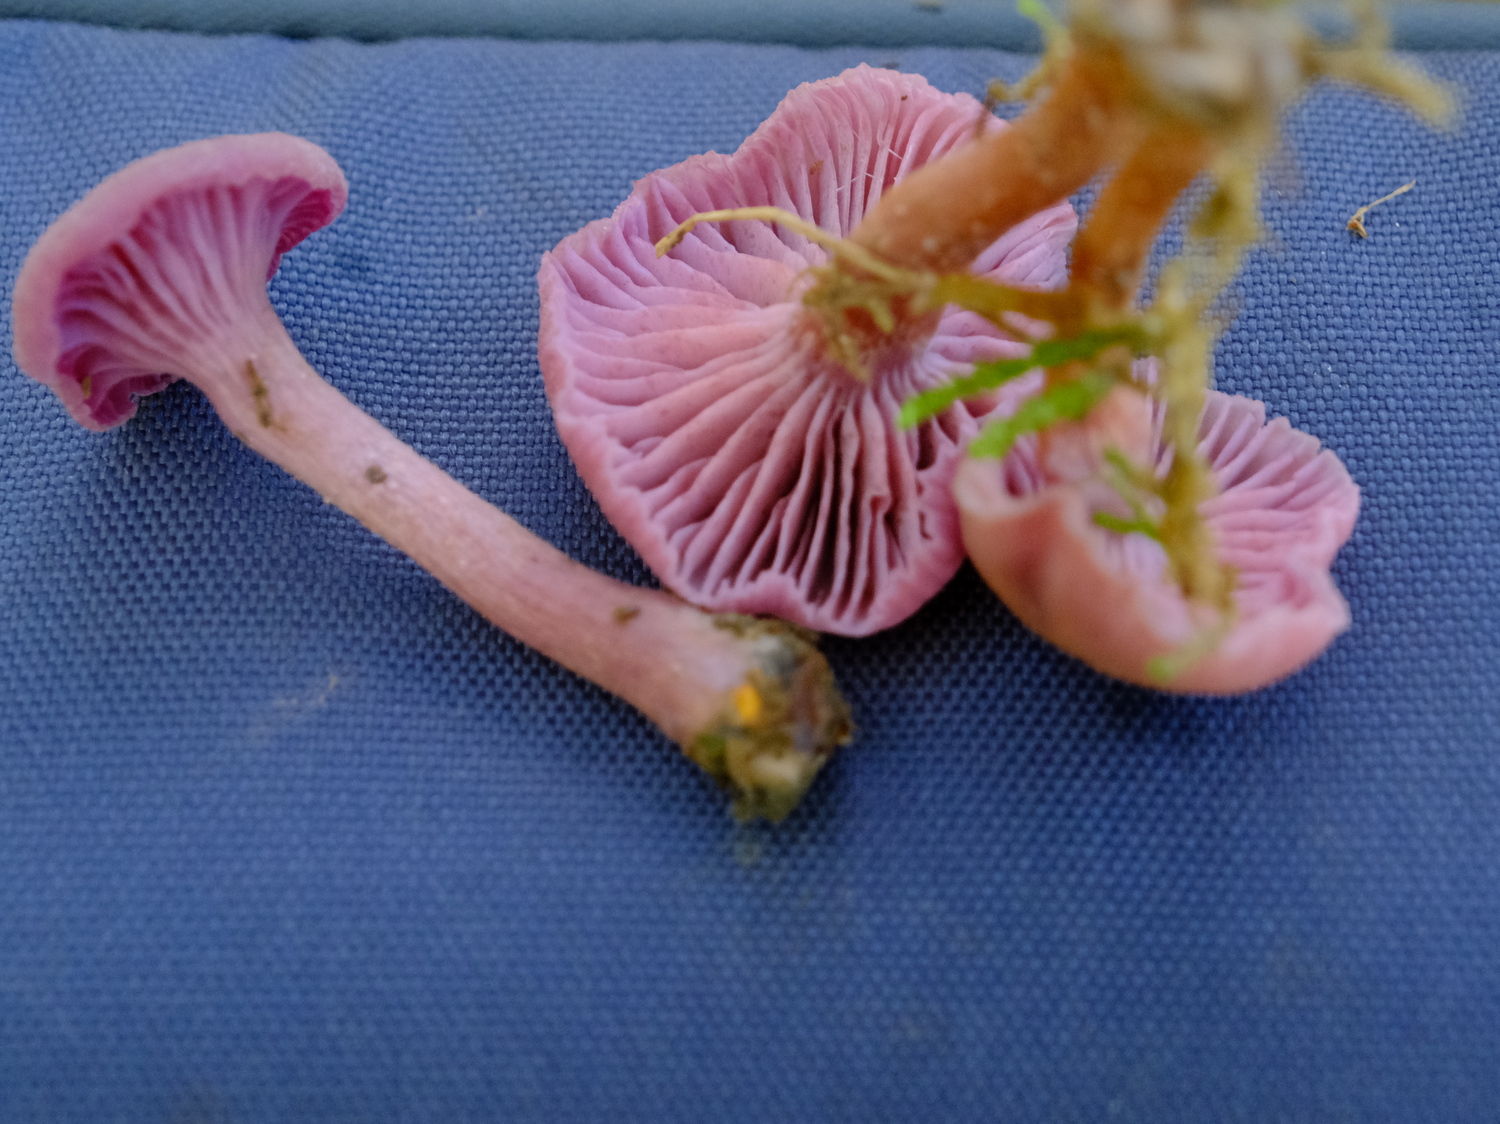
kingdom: Fungi
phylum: Basidiomycota
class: Agaricomycetes
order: Agaricales
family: Hydnangiaceae
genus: Laccaria
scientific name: Laccaria amethystina
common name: violet ametysthat
